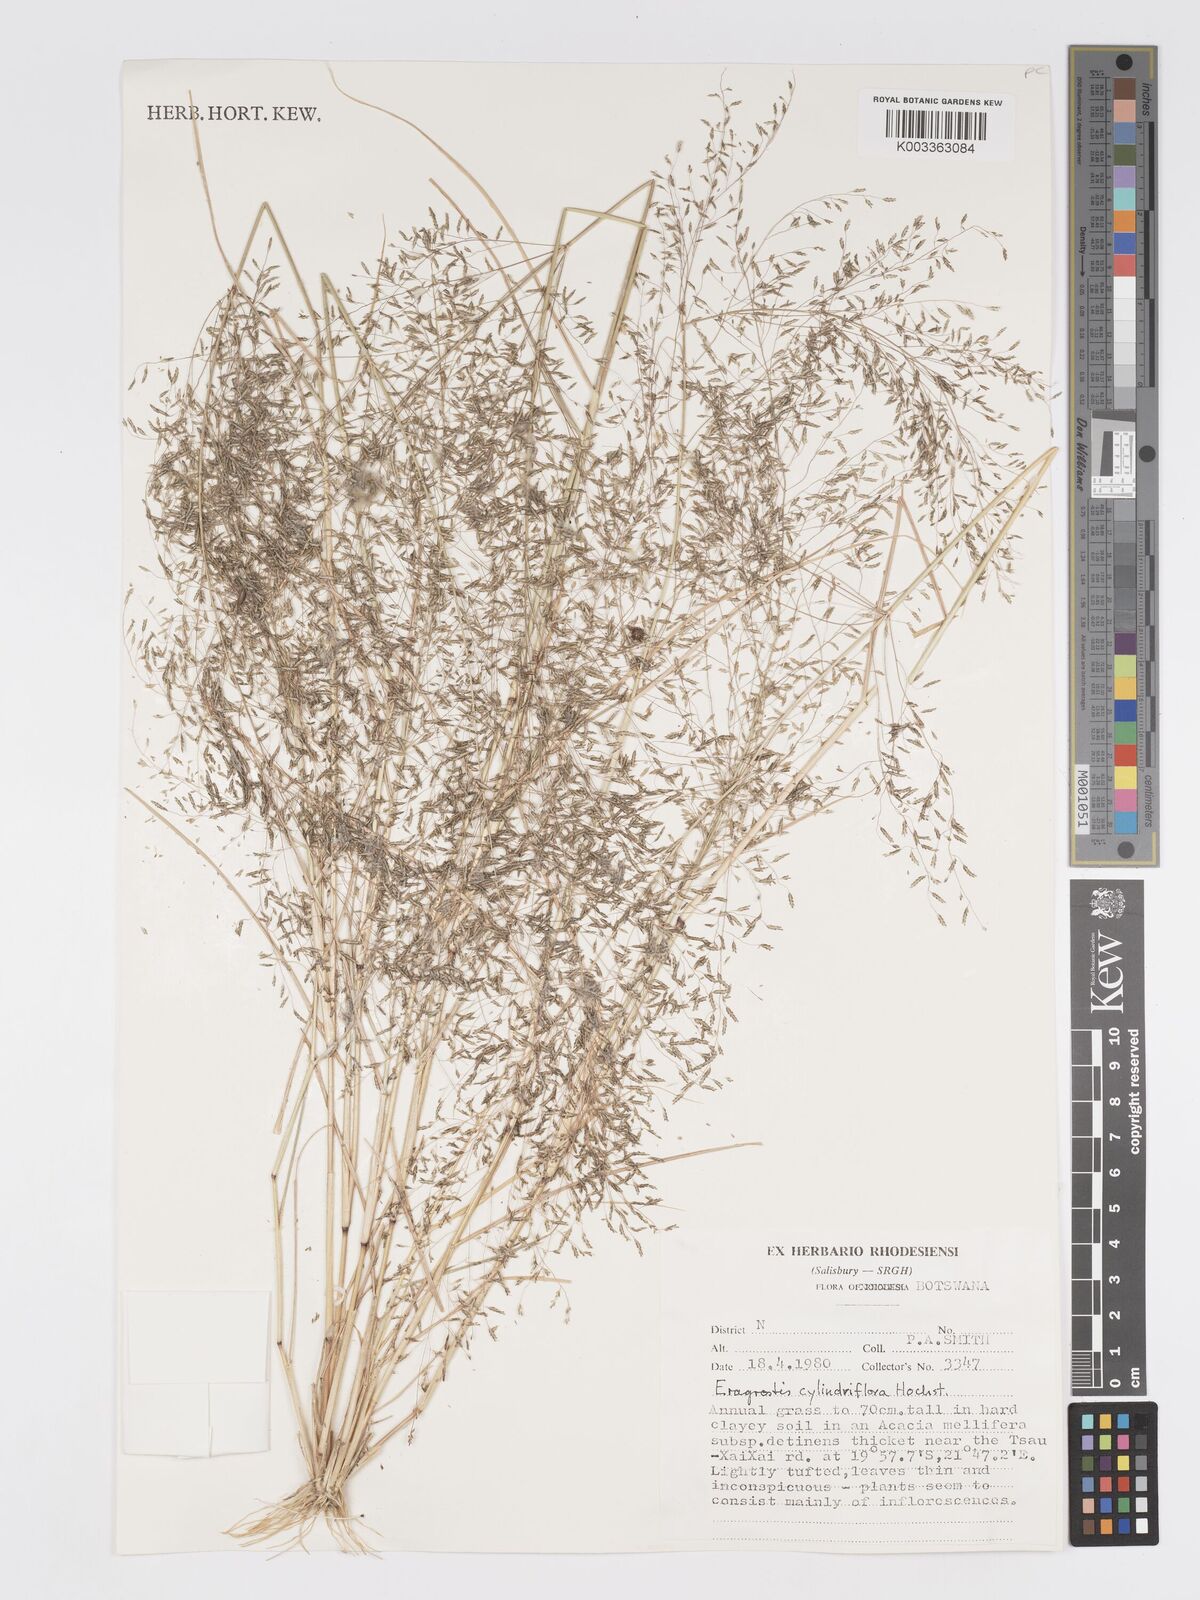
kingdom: Plantae
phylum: Tracheophyta
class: Liliopsida
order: Poales
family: Poaceae
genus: Eragrostis
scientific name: Eragrostis cylindriflora
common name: Cylinderflower lovegrass
